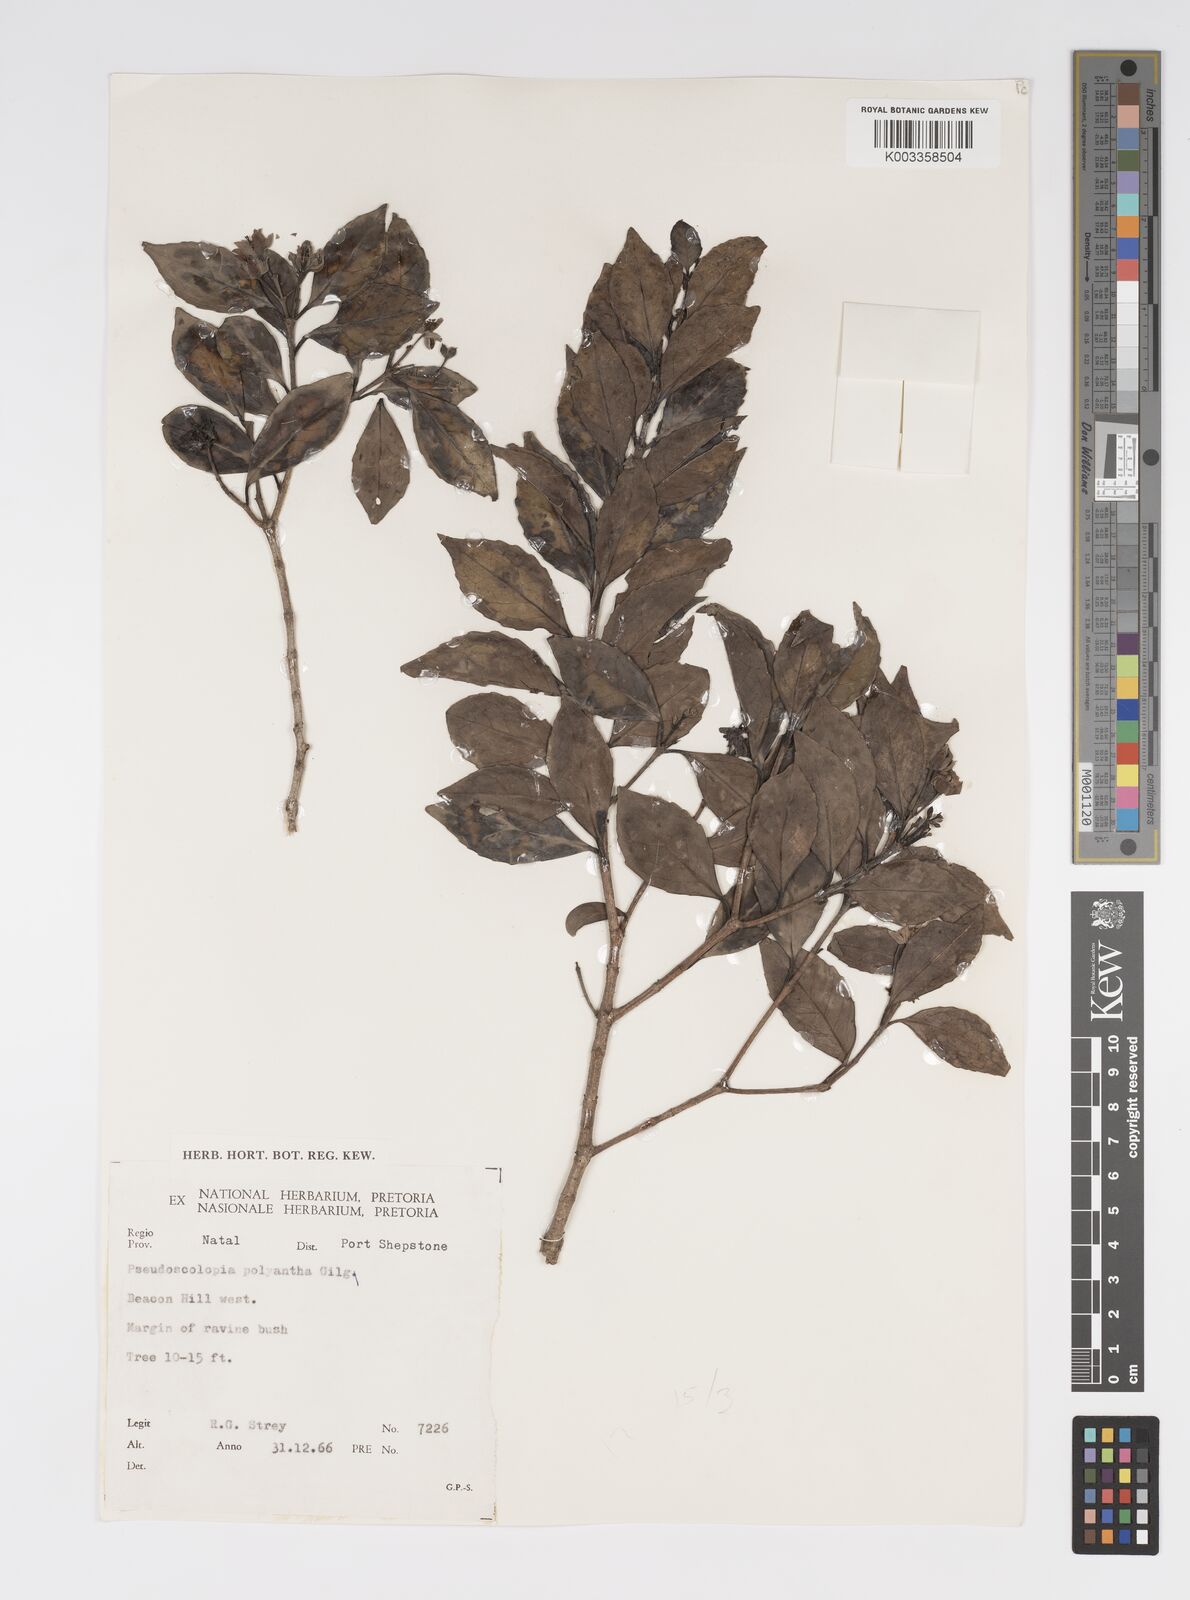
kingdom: Plantae
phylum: Tracheophyta
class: Magnoliopsida
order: Malpighiales
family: Salicaceae
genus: Pseudoscolopia
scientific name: Pseudoscolopia polyantha
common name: Sandstone red-stem
